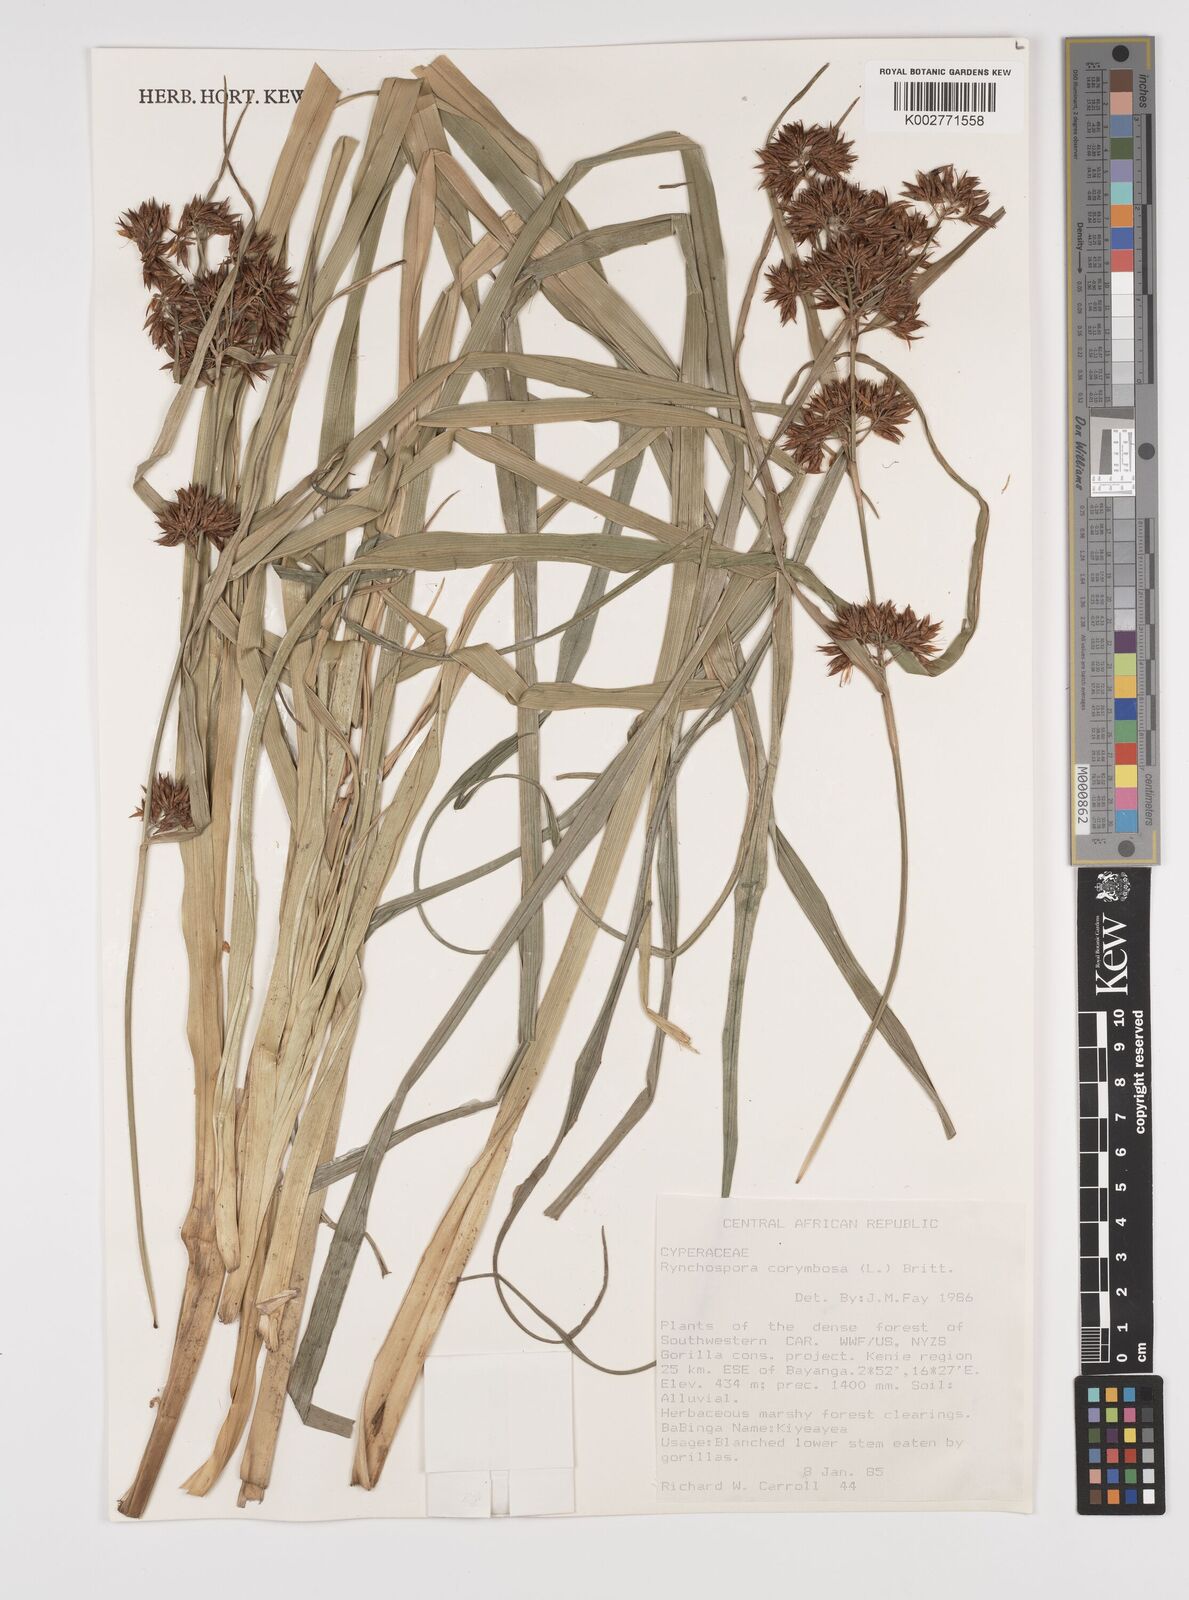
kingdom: Plantae
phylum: Tracheophyta
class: Liliopsida
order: Poales
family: Cyperaceae
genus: Rhynchospora
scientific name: Rhynchospora corymbosa
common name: Golden beak sedge
